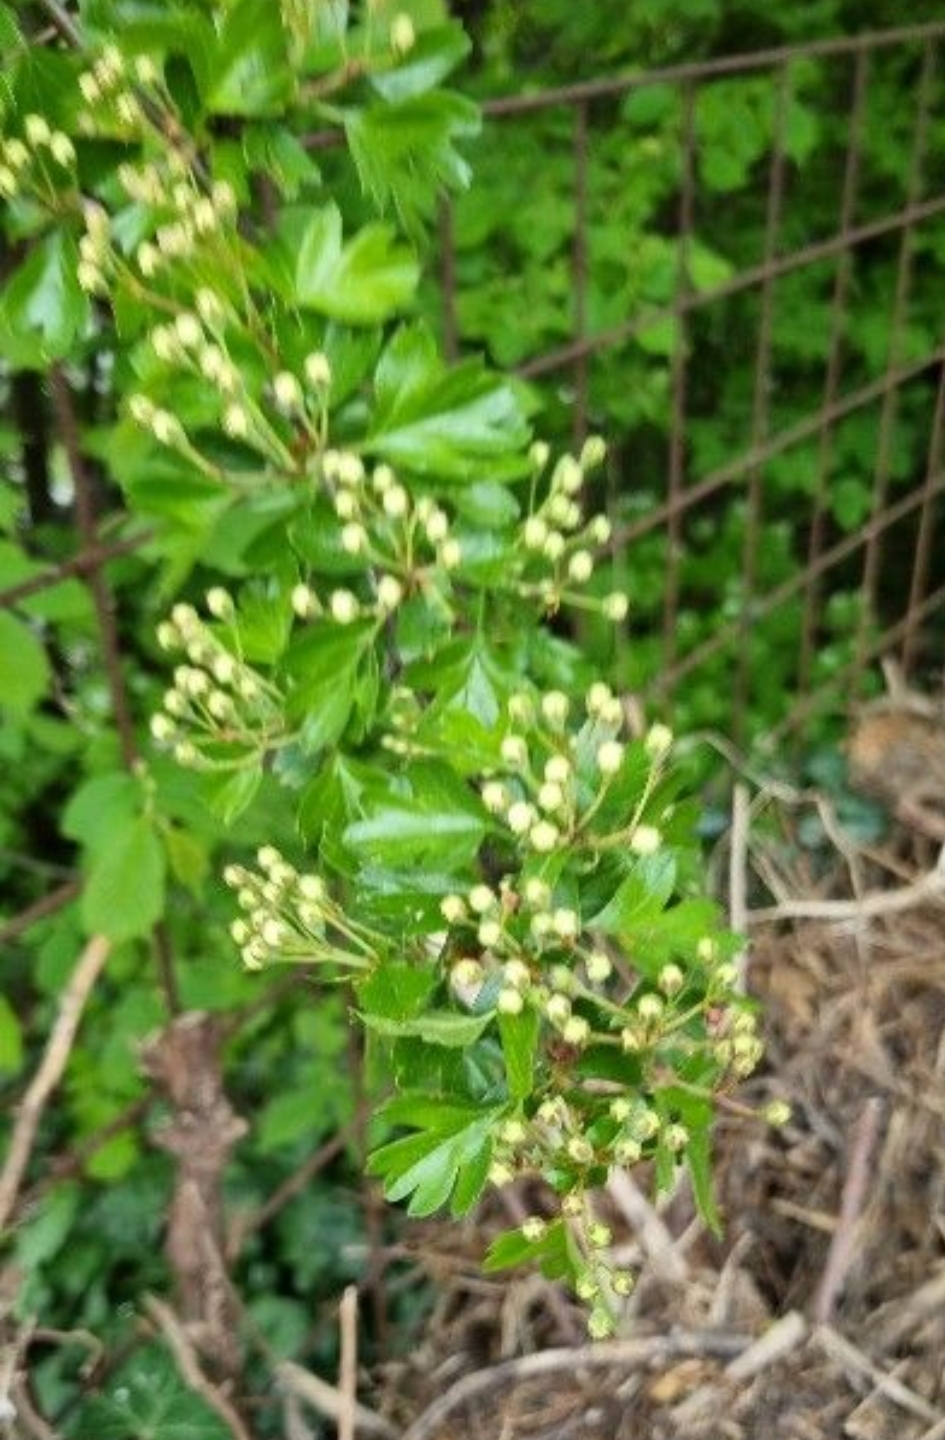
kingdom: Plantae
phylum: Tracheophyta
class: Magnoliopsida
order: Rosales
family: Rosaceae
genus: Crataegus
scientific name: Crataegus monogyna
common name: Engriflet hvidtjørn
